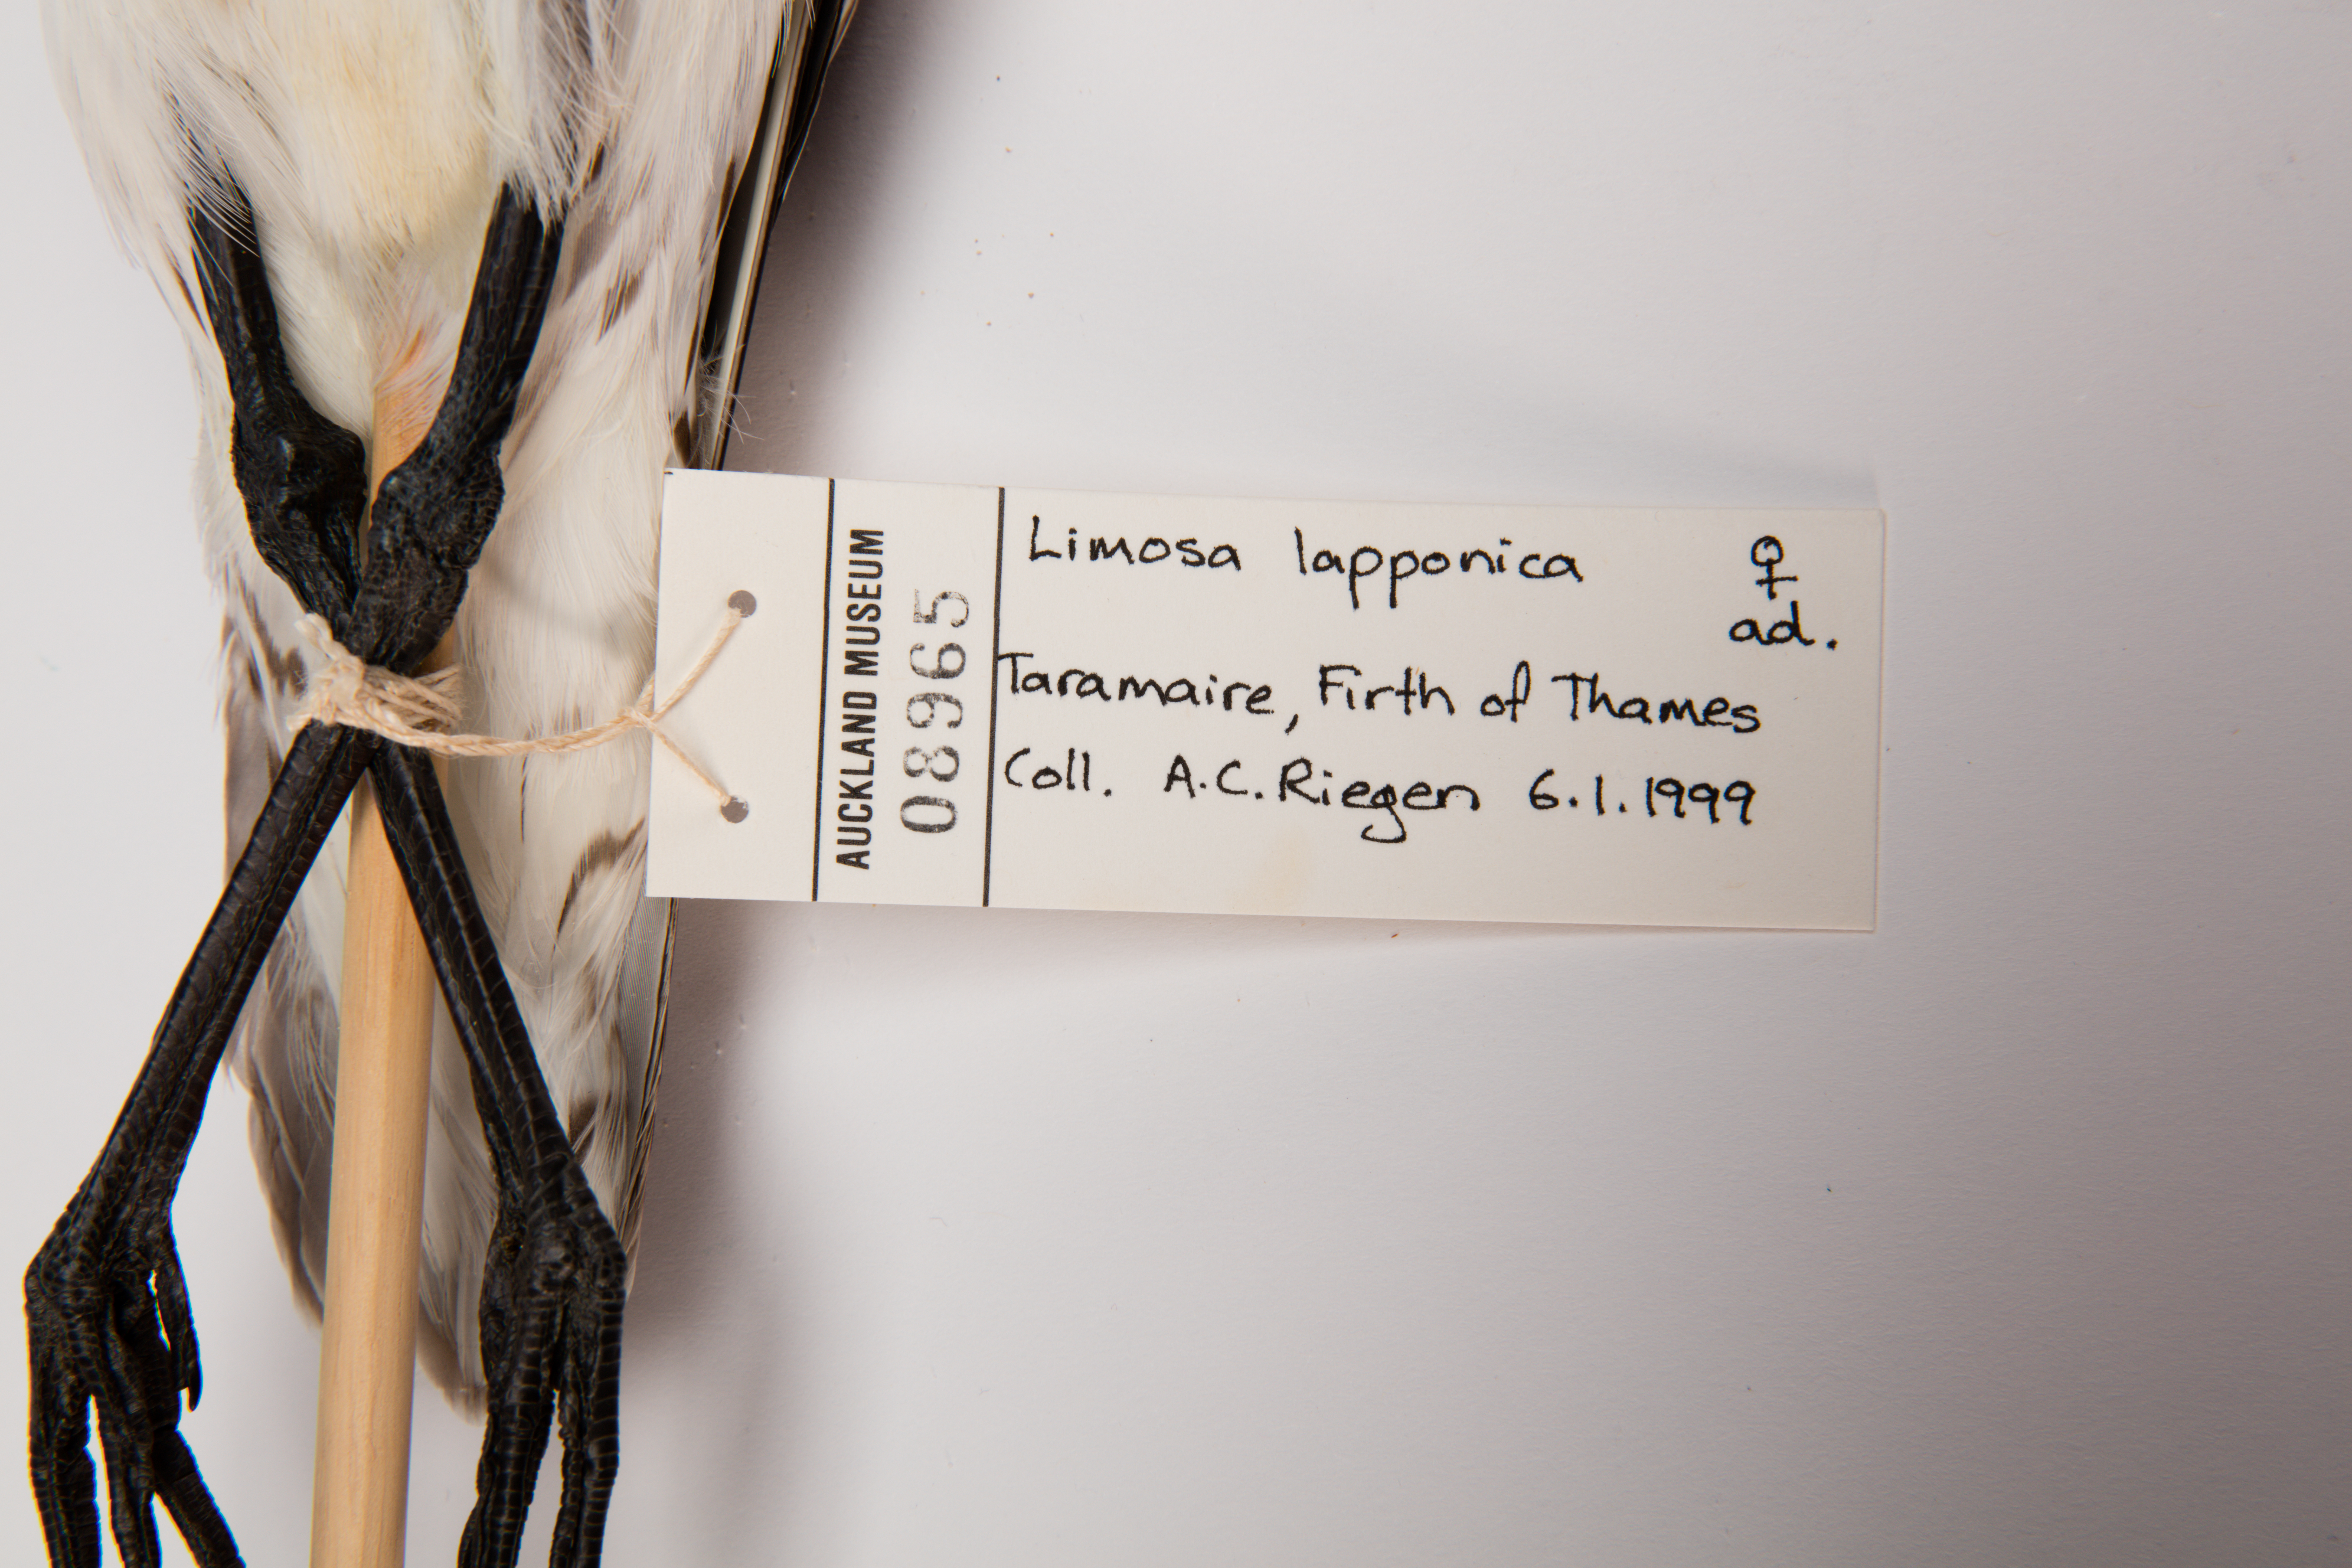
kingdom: Animalia
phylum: Chordata
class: Aves
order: Charadriiformes
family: Scolopacidae
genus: Limosa
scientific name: Limosa lapponica
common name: Bar-tailed godwit
